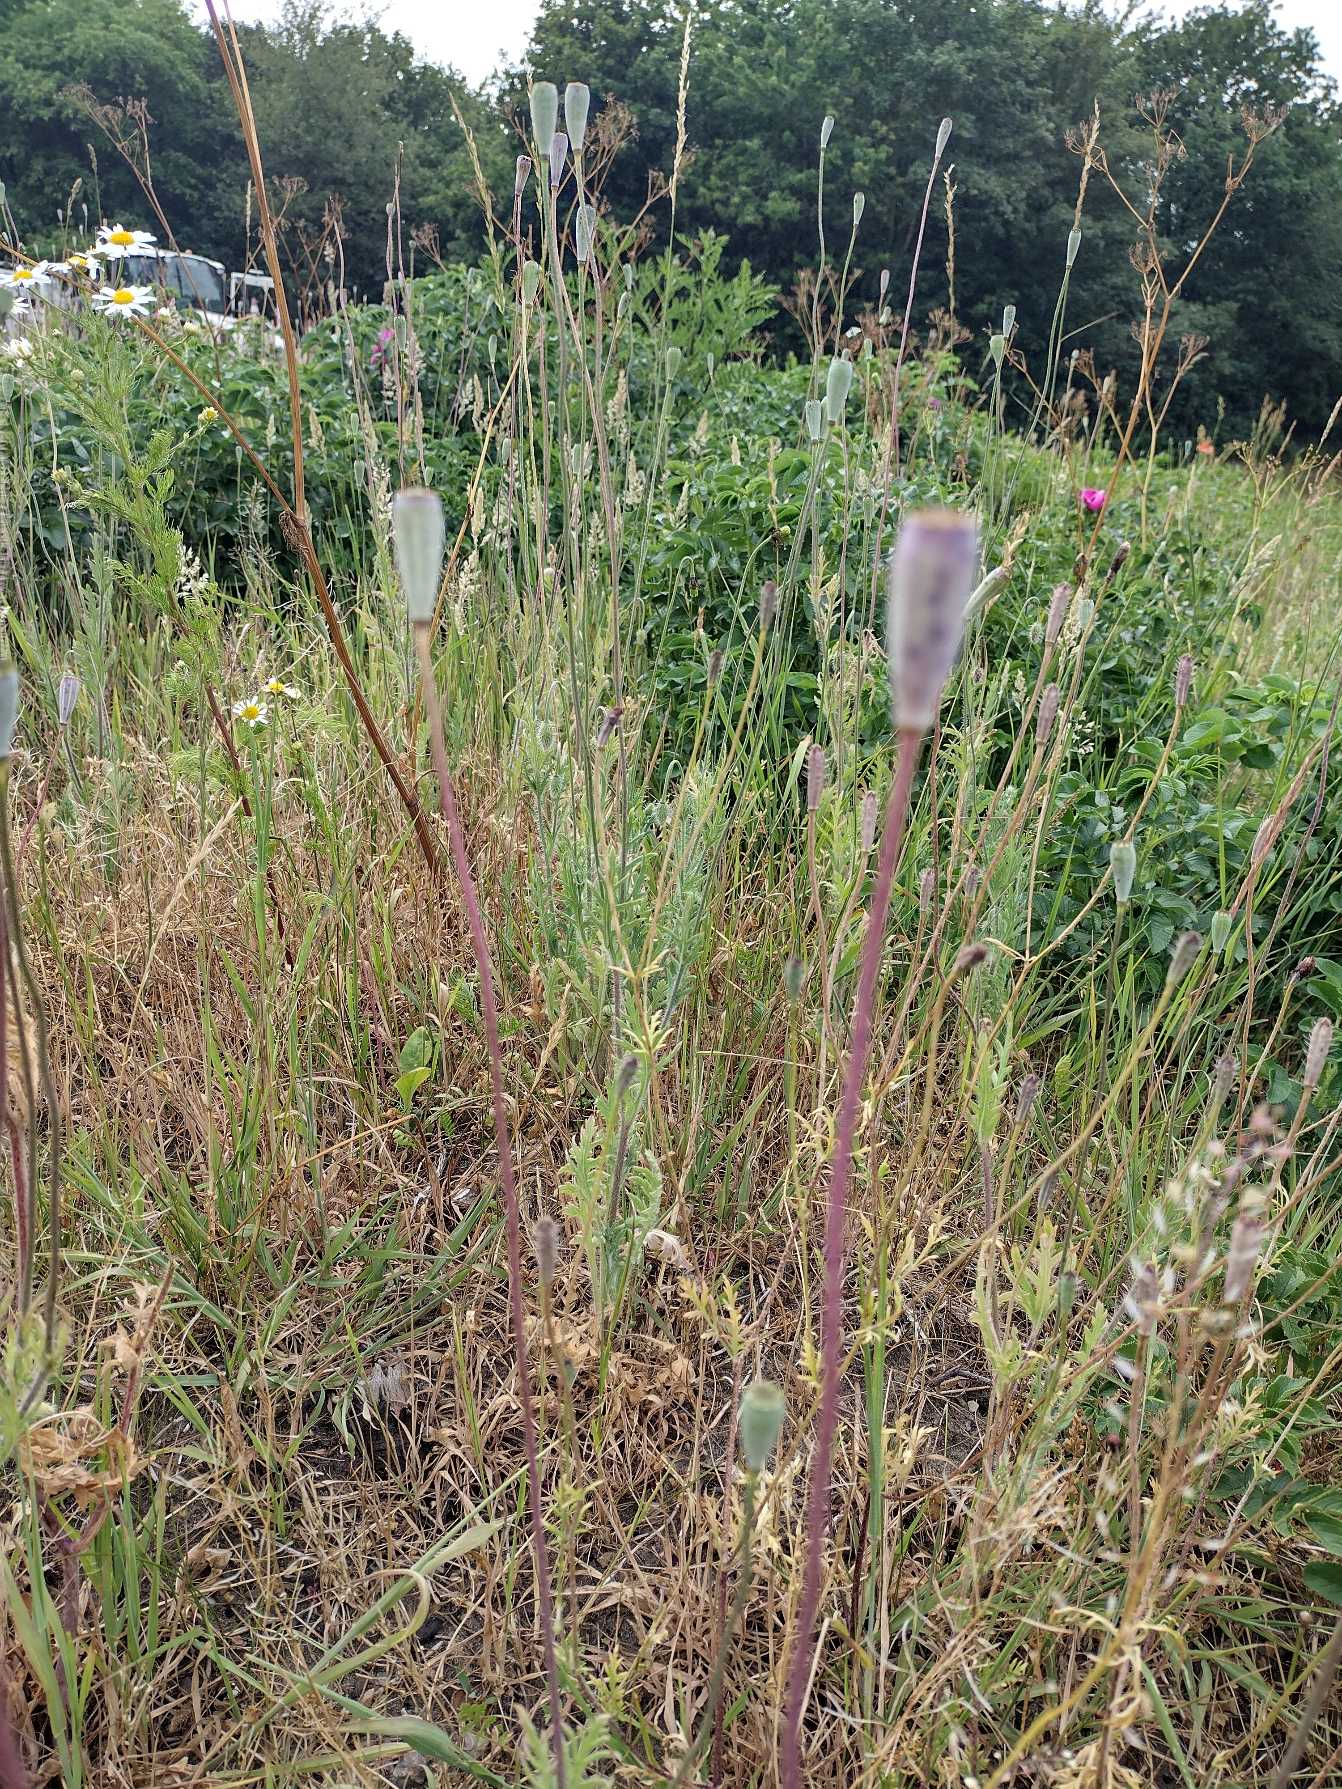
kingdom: Plantae
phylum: Tracheophyta
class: Magnoliopsida
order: Ranunculales
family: Papaveraceae
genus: Papaver
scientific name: Papaver dubium
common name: Gærde-valmue
